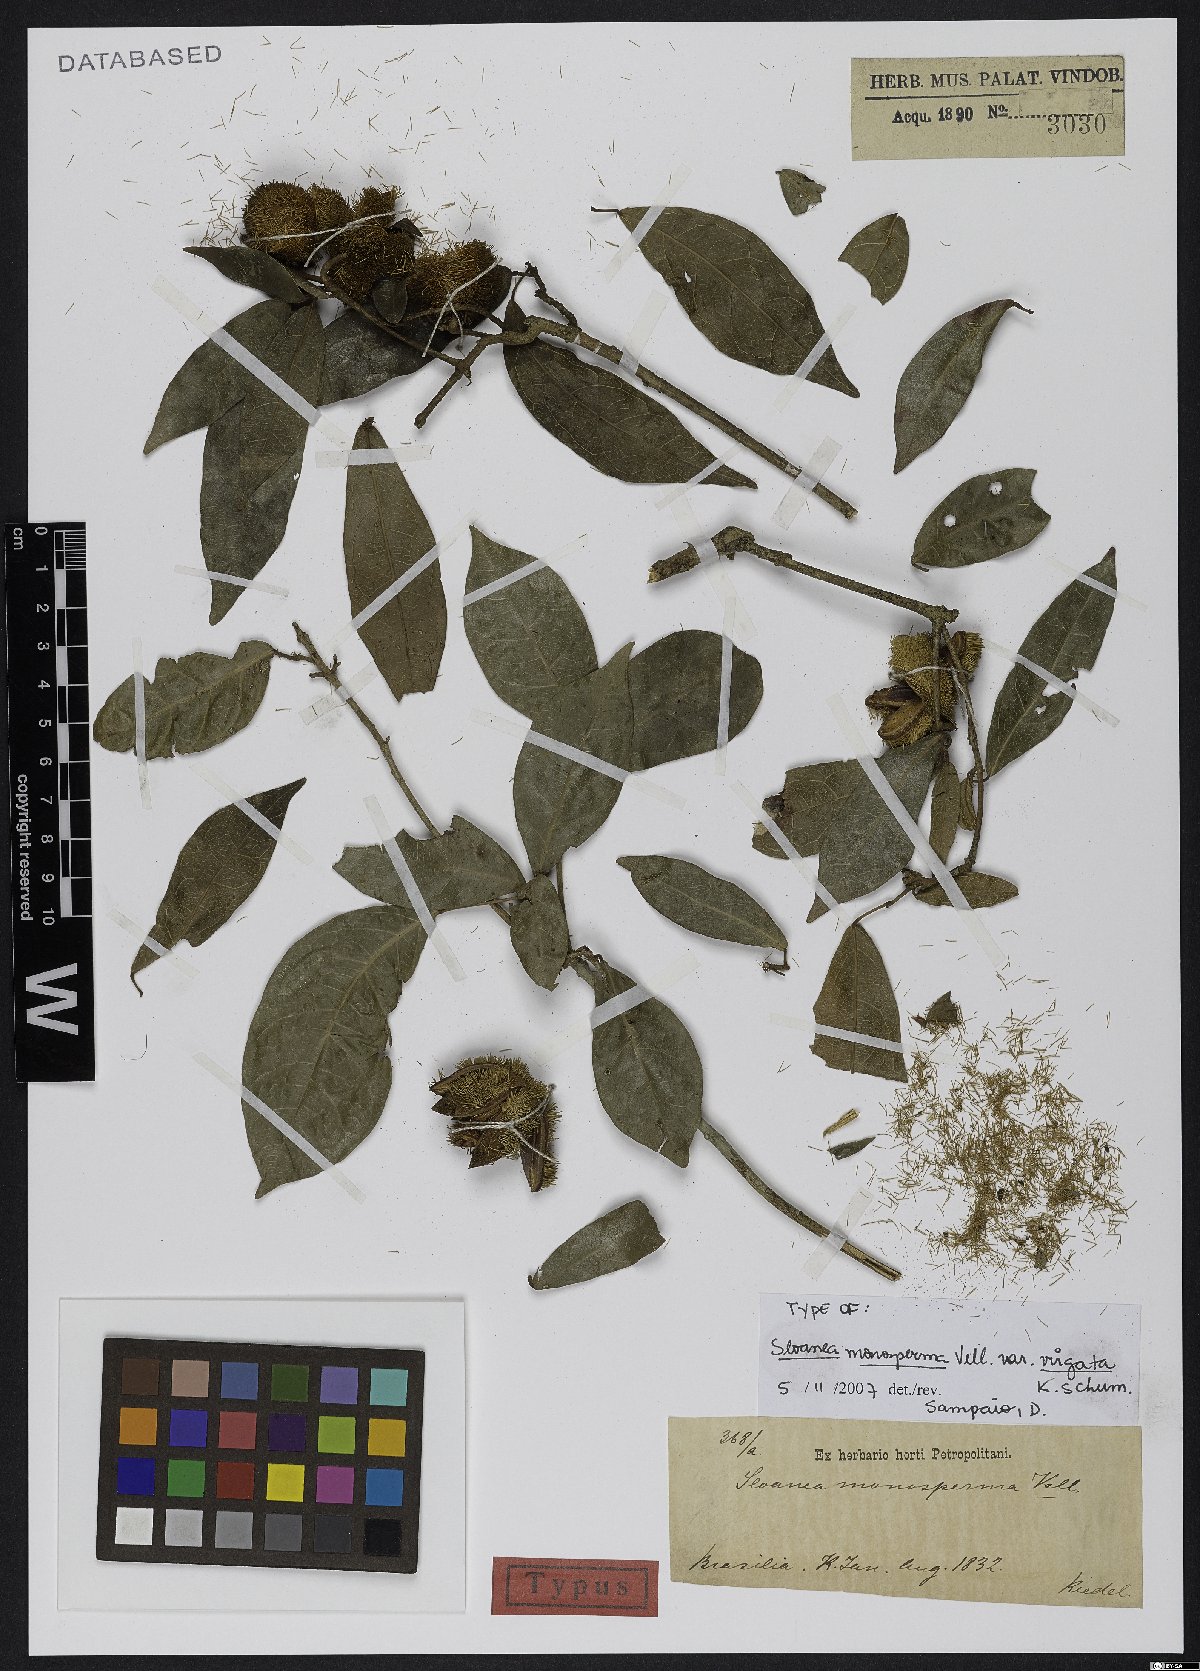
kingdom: Plantae
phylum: Tracheophyta
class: Magnoliopsida
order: Oxalidales
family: Elaeocarpaceae
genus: Sloanea
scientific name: Sloanea hirsuta
